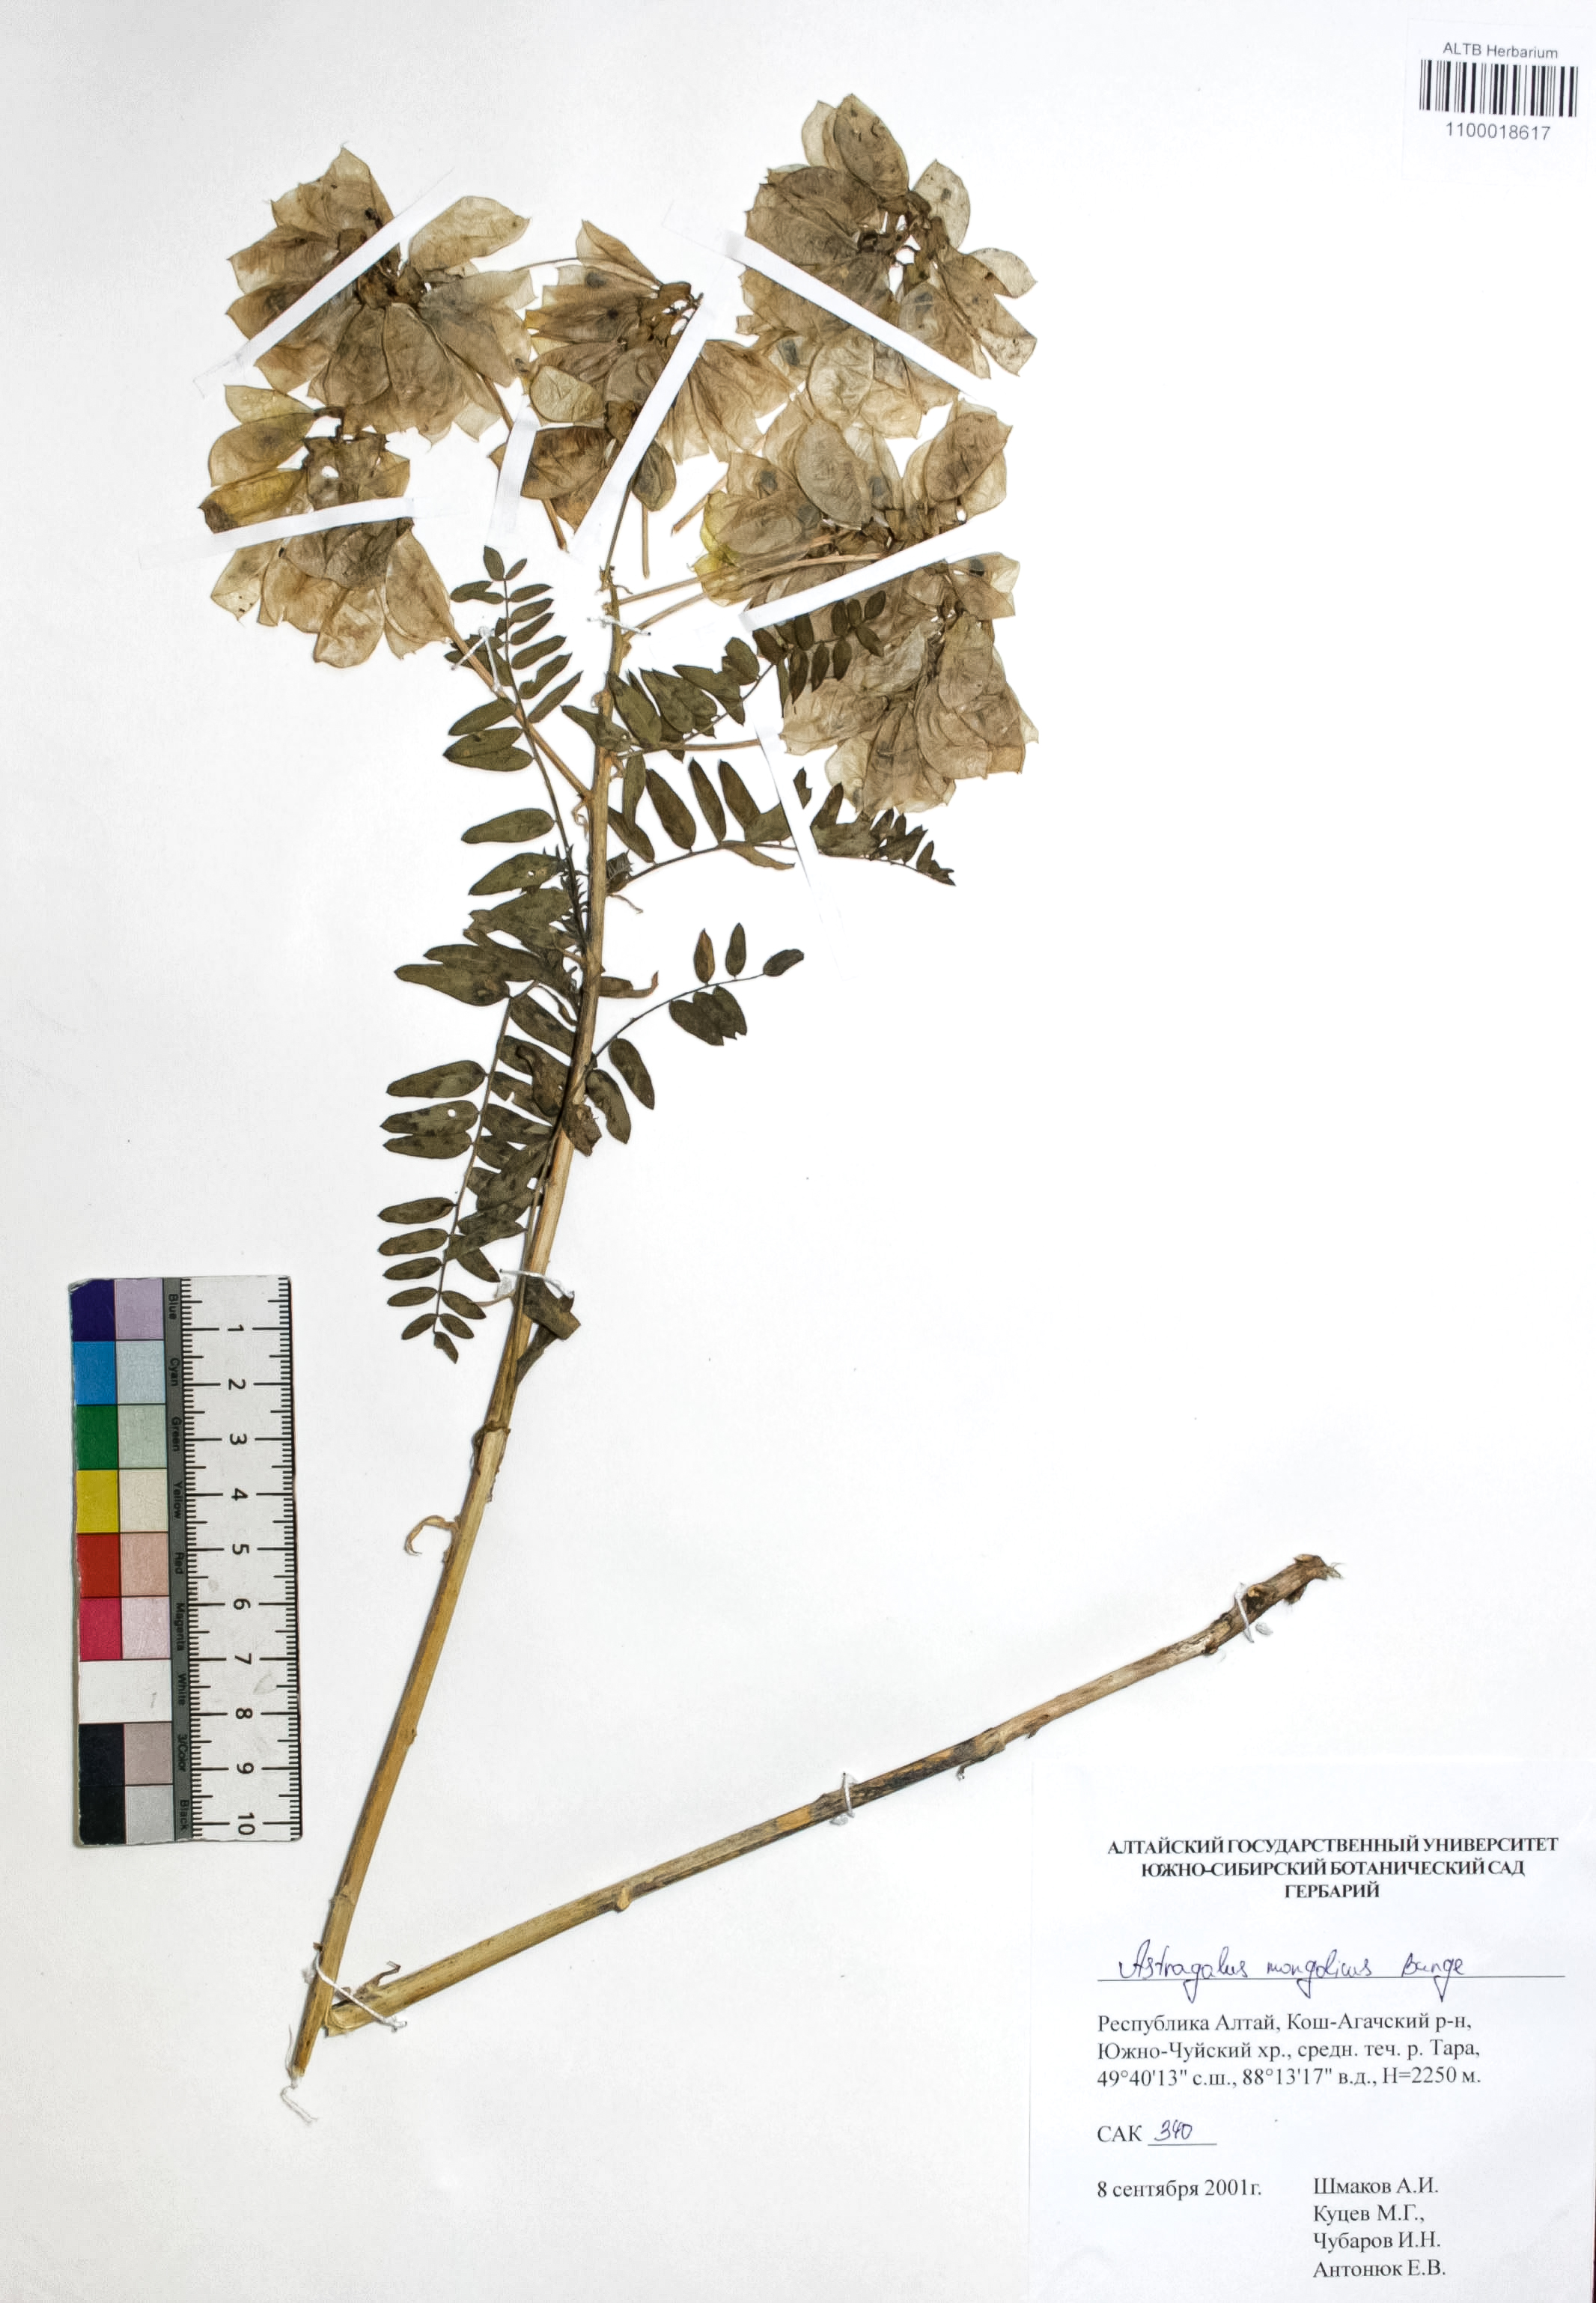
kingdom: Plantae
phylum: Tracheophyta
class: Magnoliopsida
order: Fabales
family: Fabaceae
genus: Astragalus
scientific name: Astragalus mongolicus
